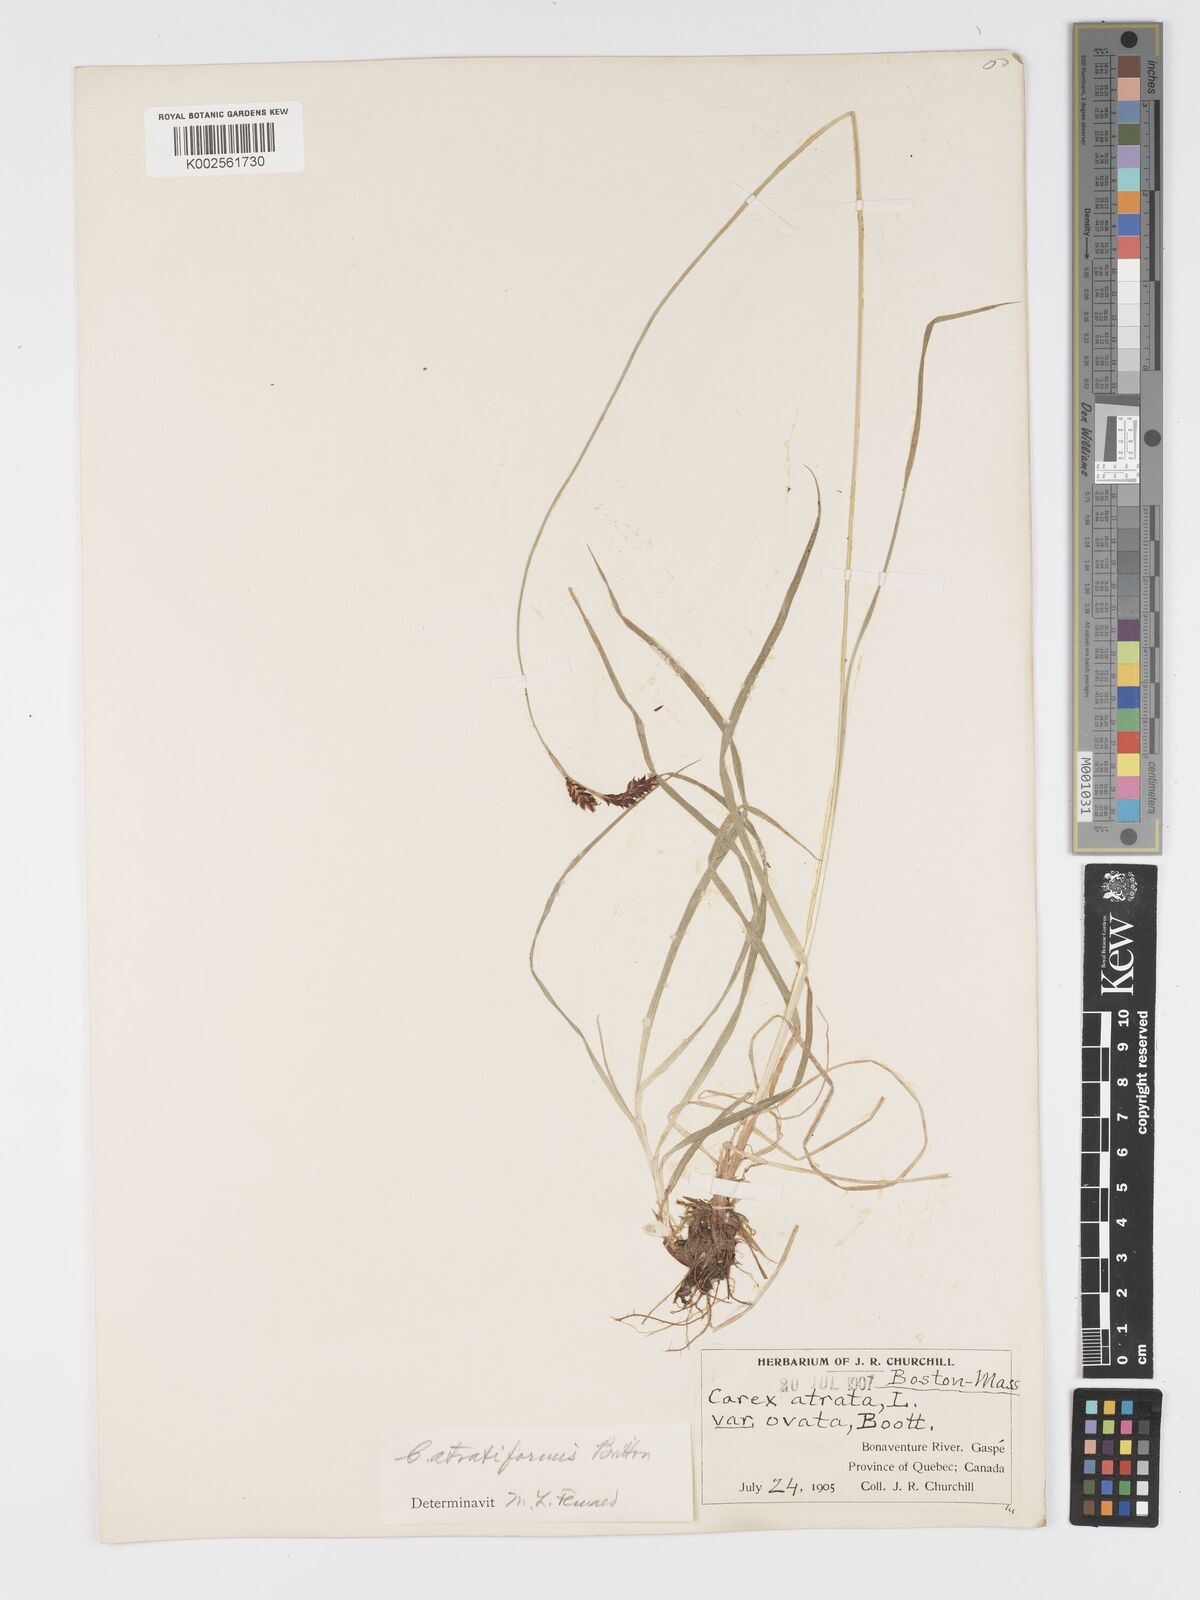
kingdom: Plantae
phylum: Tracheophyta
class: Liliopsida
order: Poales
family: Cyperaceae
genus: Carex
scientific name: Carex atratiformis
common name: Black sedge
